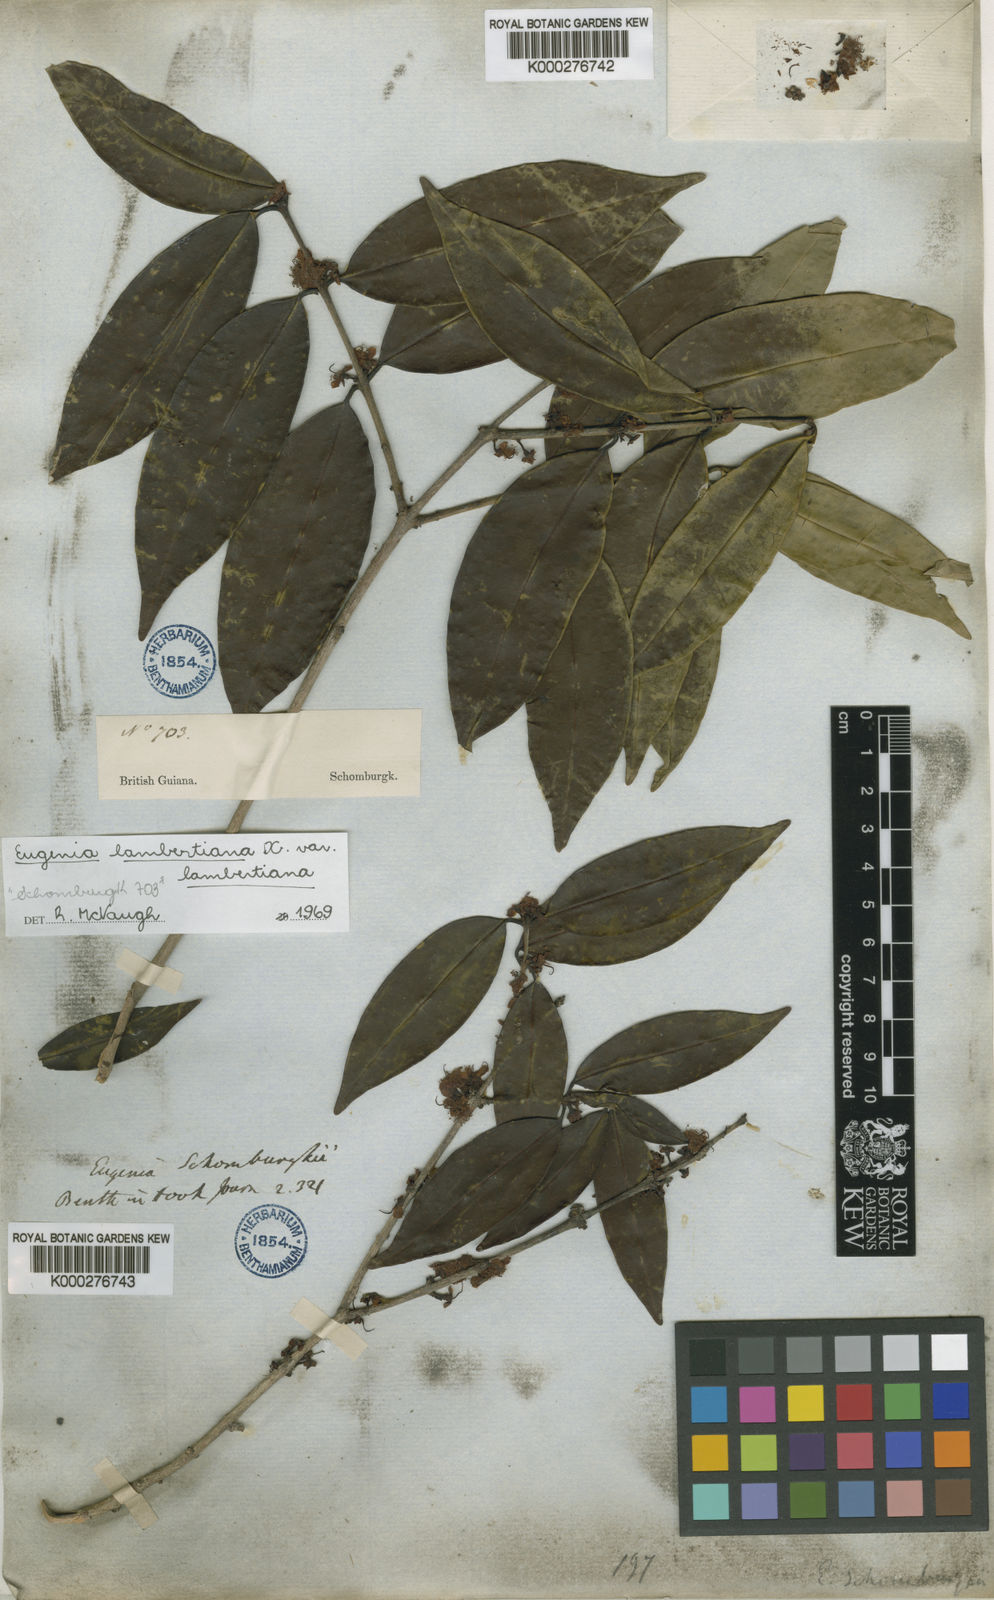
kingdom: Plantae
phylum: Tracheophyta
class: Magnoliopsida
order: Myrtales
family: Myrtaceae
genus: Eugenia
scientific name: Eugenia lambertiana
